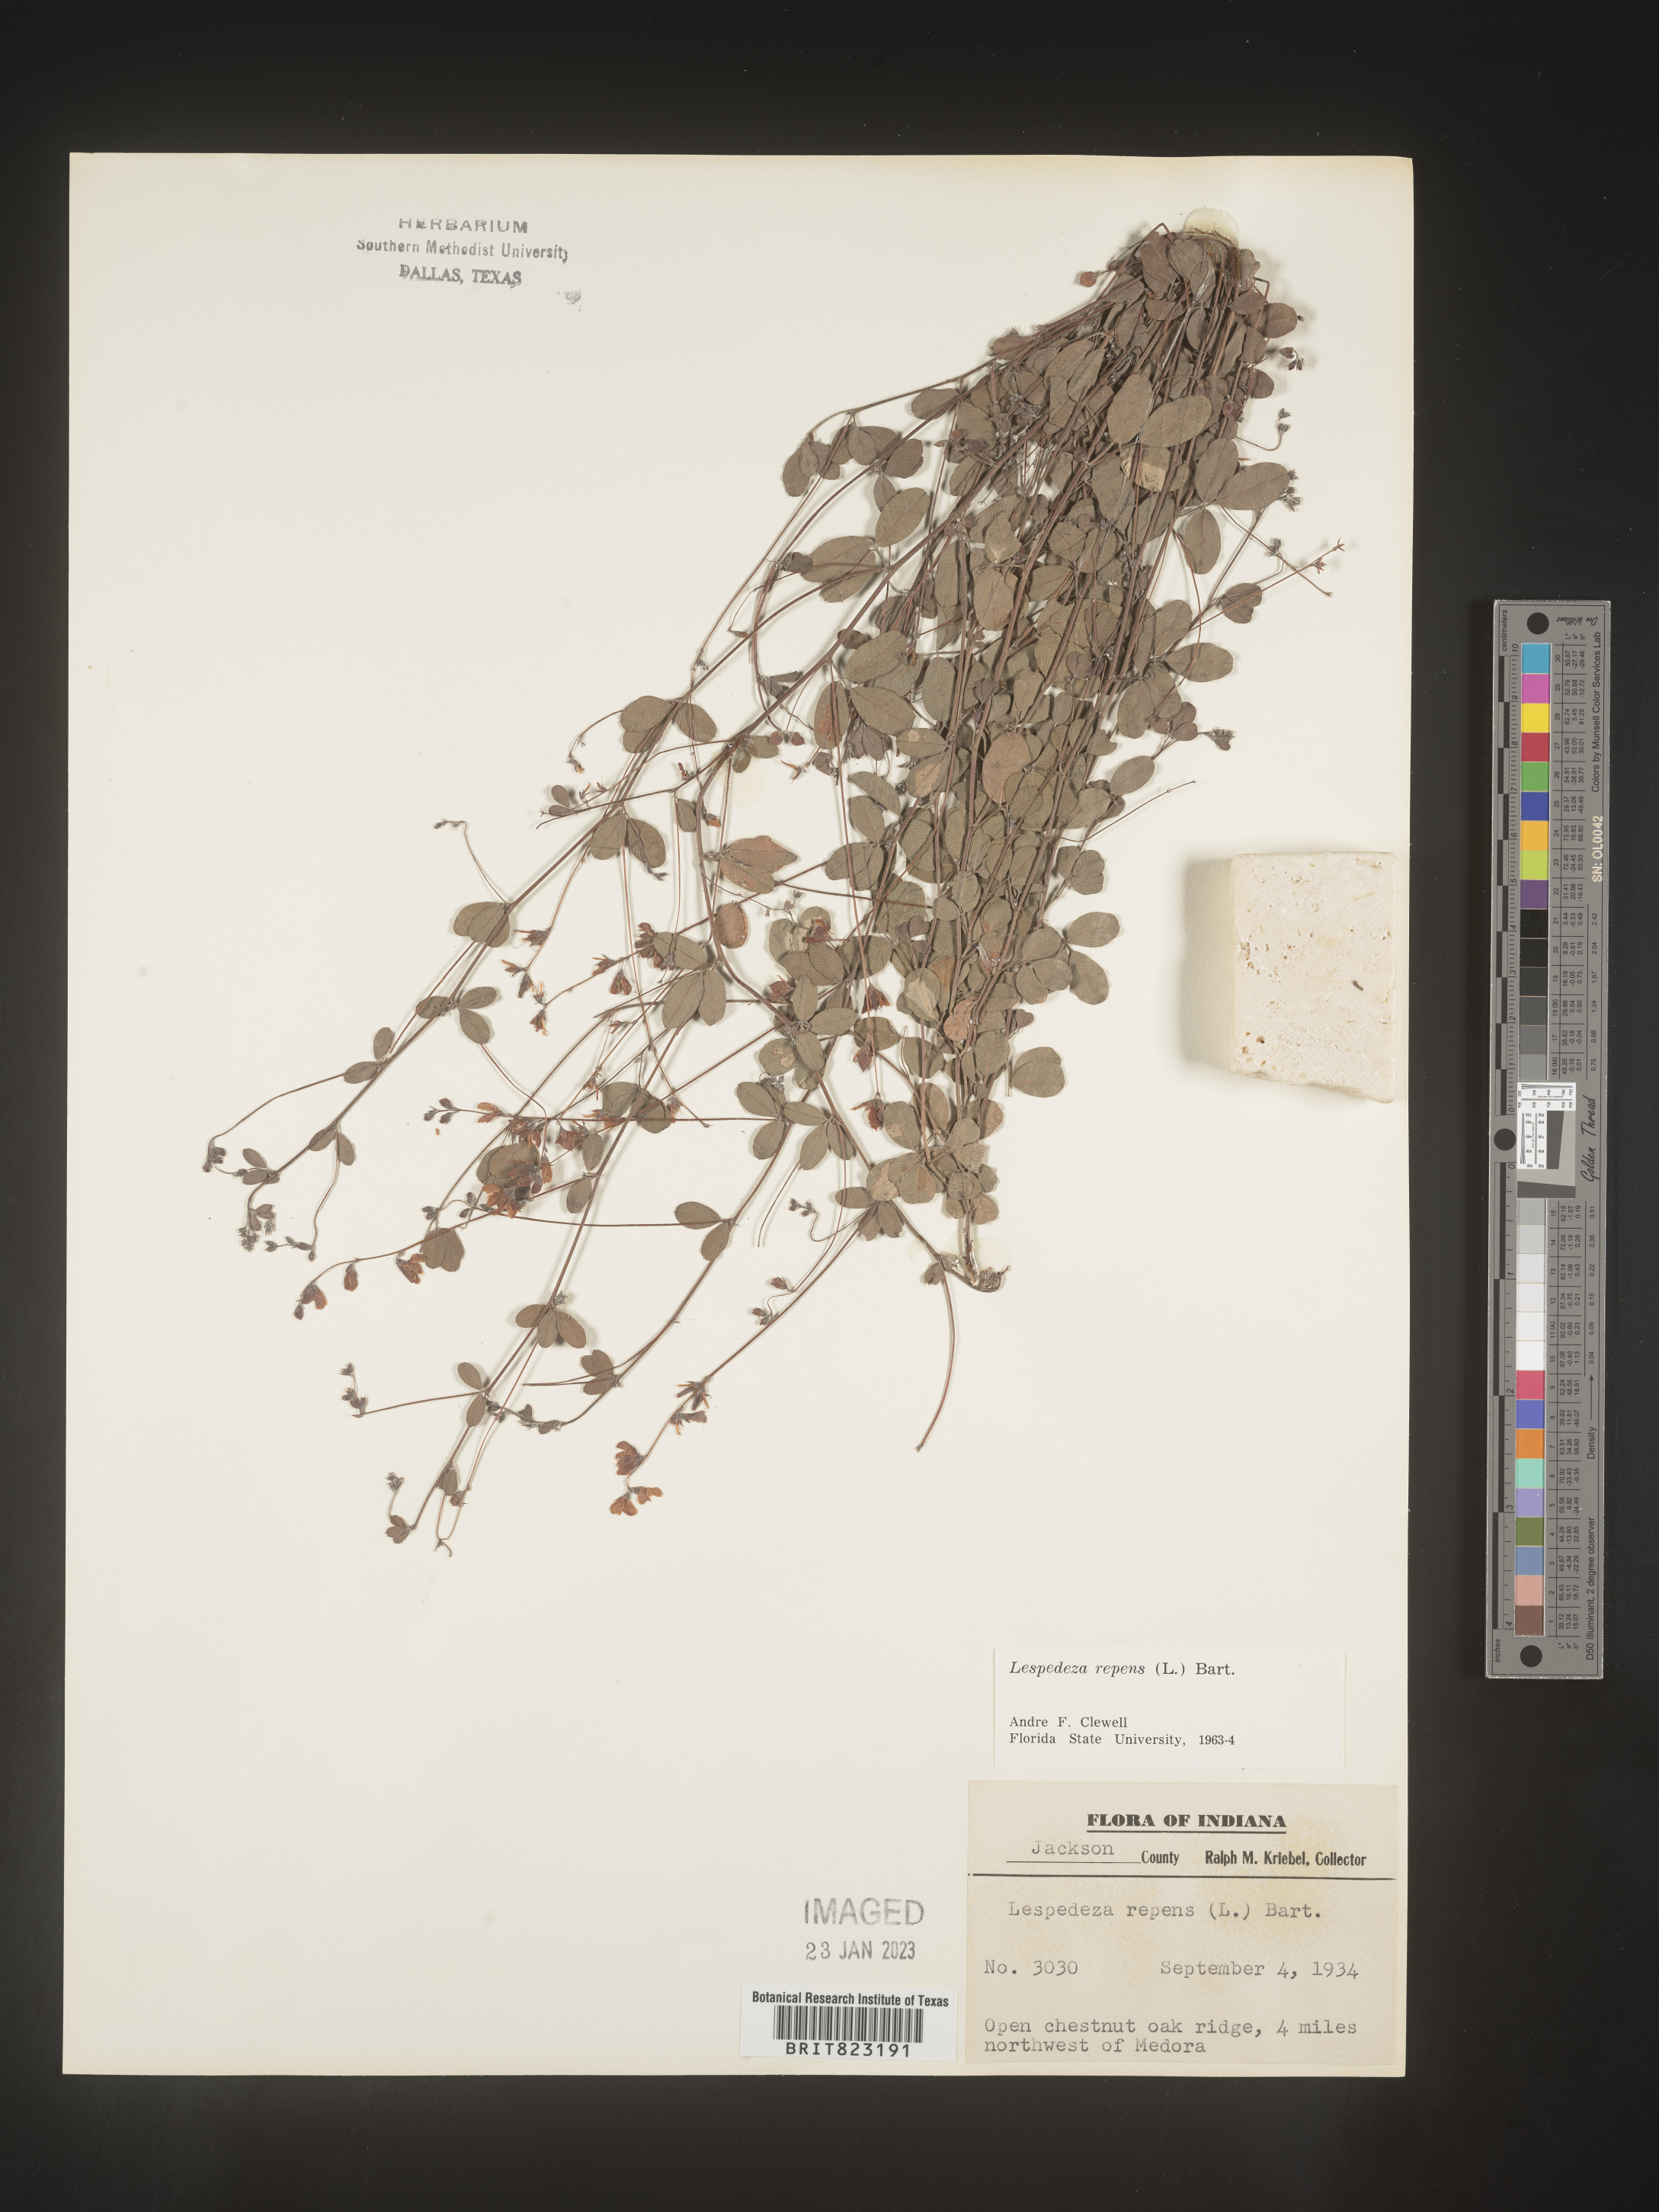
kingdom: Plantae
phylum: Tracheophyta
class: Magnoliopsida
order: Fabales
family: Fabaceae
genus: Lespedeza
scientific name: Lespedeza repens
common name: Creeping bush-clover
